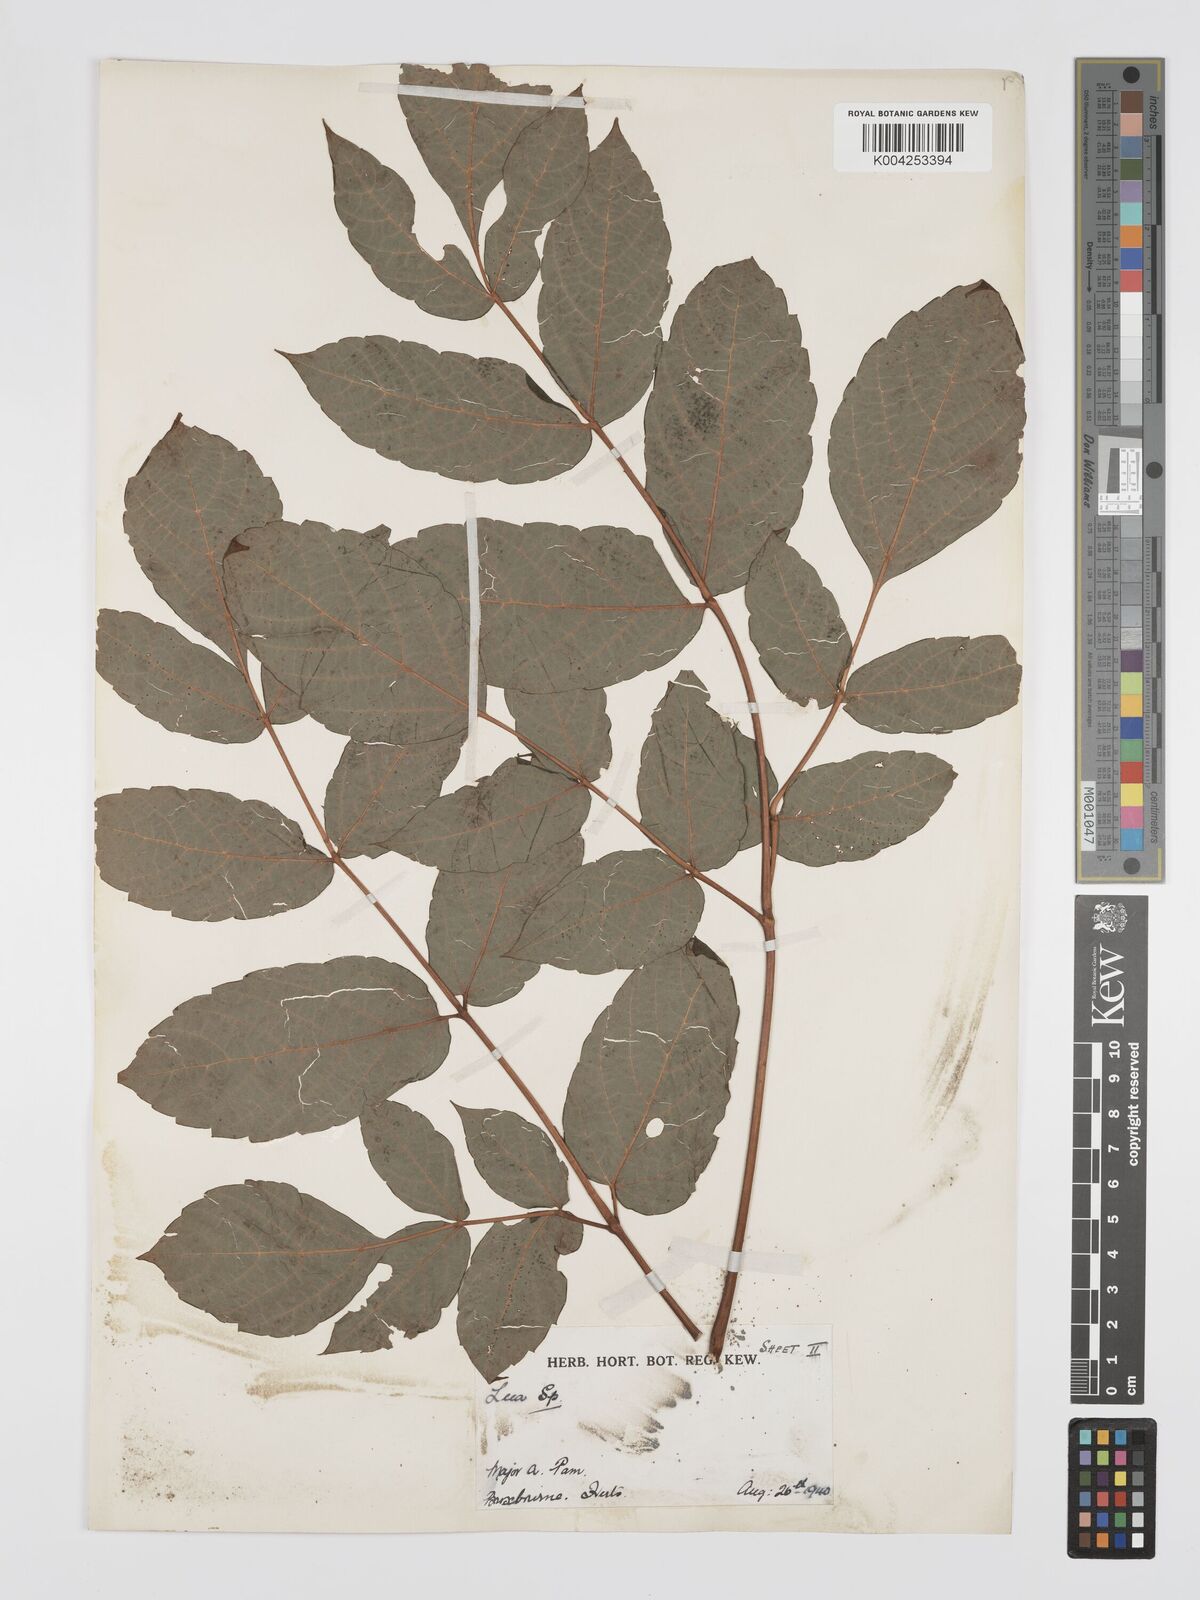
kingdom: Plantae
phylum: Tracheophyta
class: Magnoliopsida
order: Vitales
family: Vitaceae
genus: Leea
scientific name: Leea
